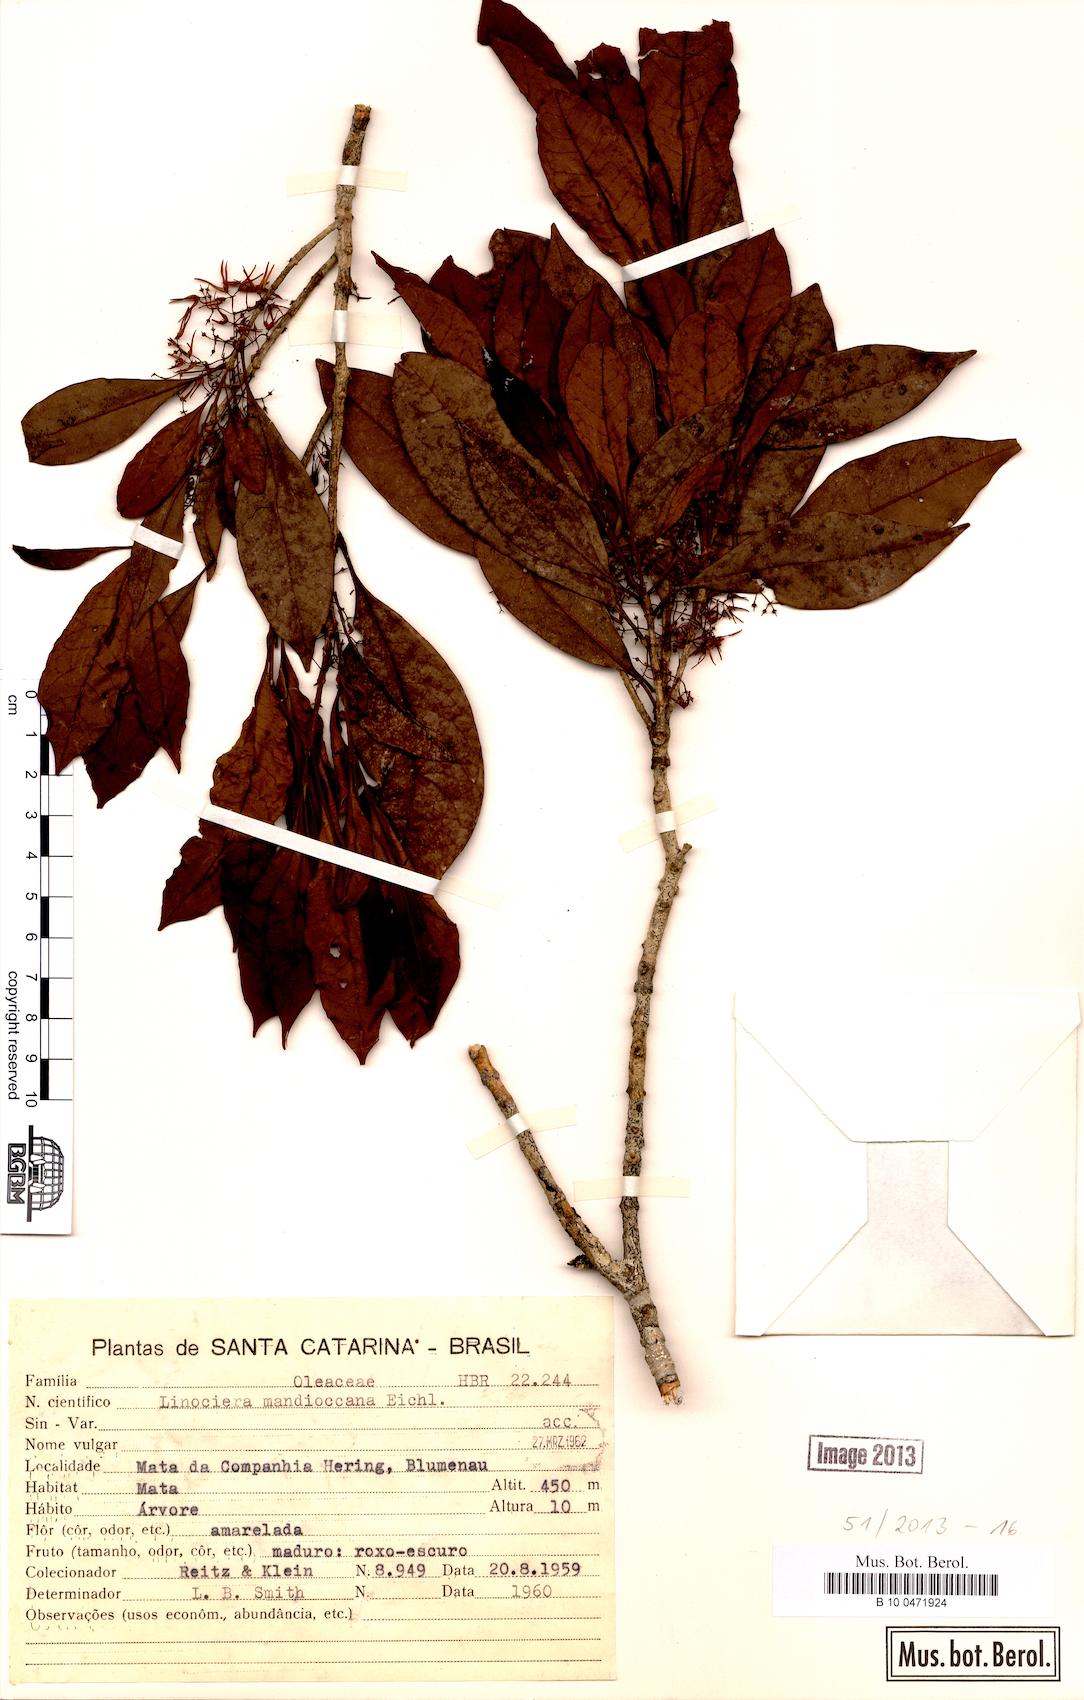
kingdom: Plantae
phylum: Tracheophyta
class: Magnoliopsida
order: Lamiales
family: Oleaceae
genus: Chionanthus
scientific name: Chionanthus filiformis
